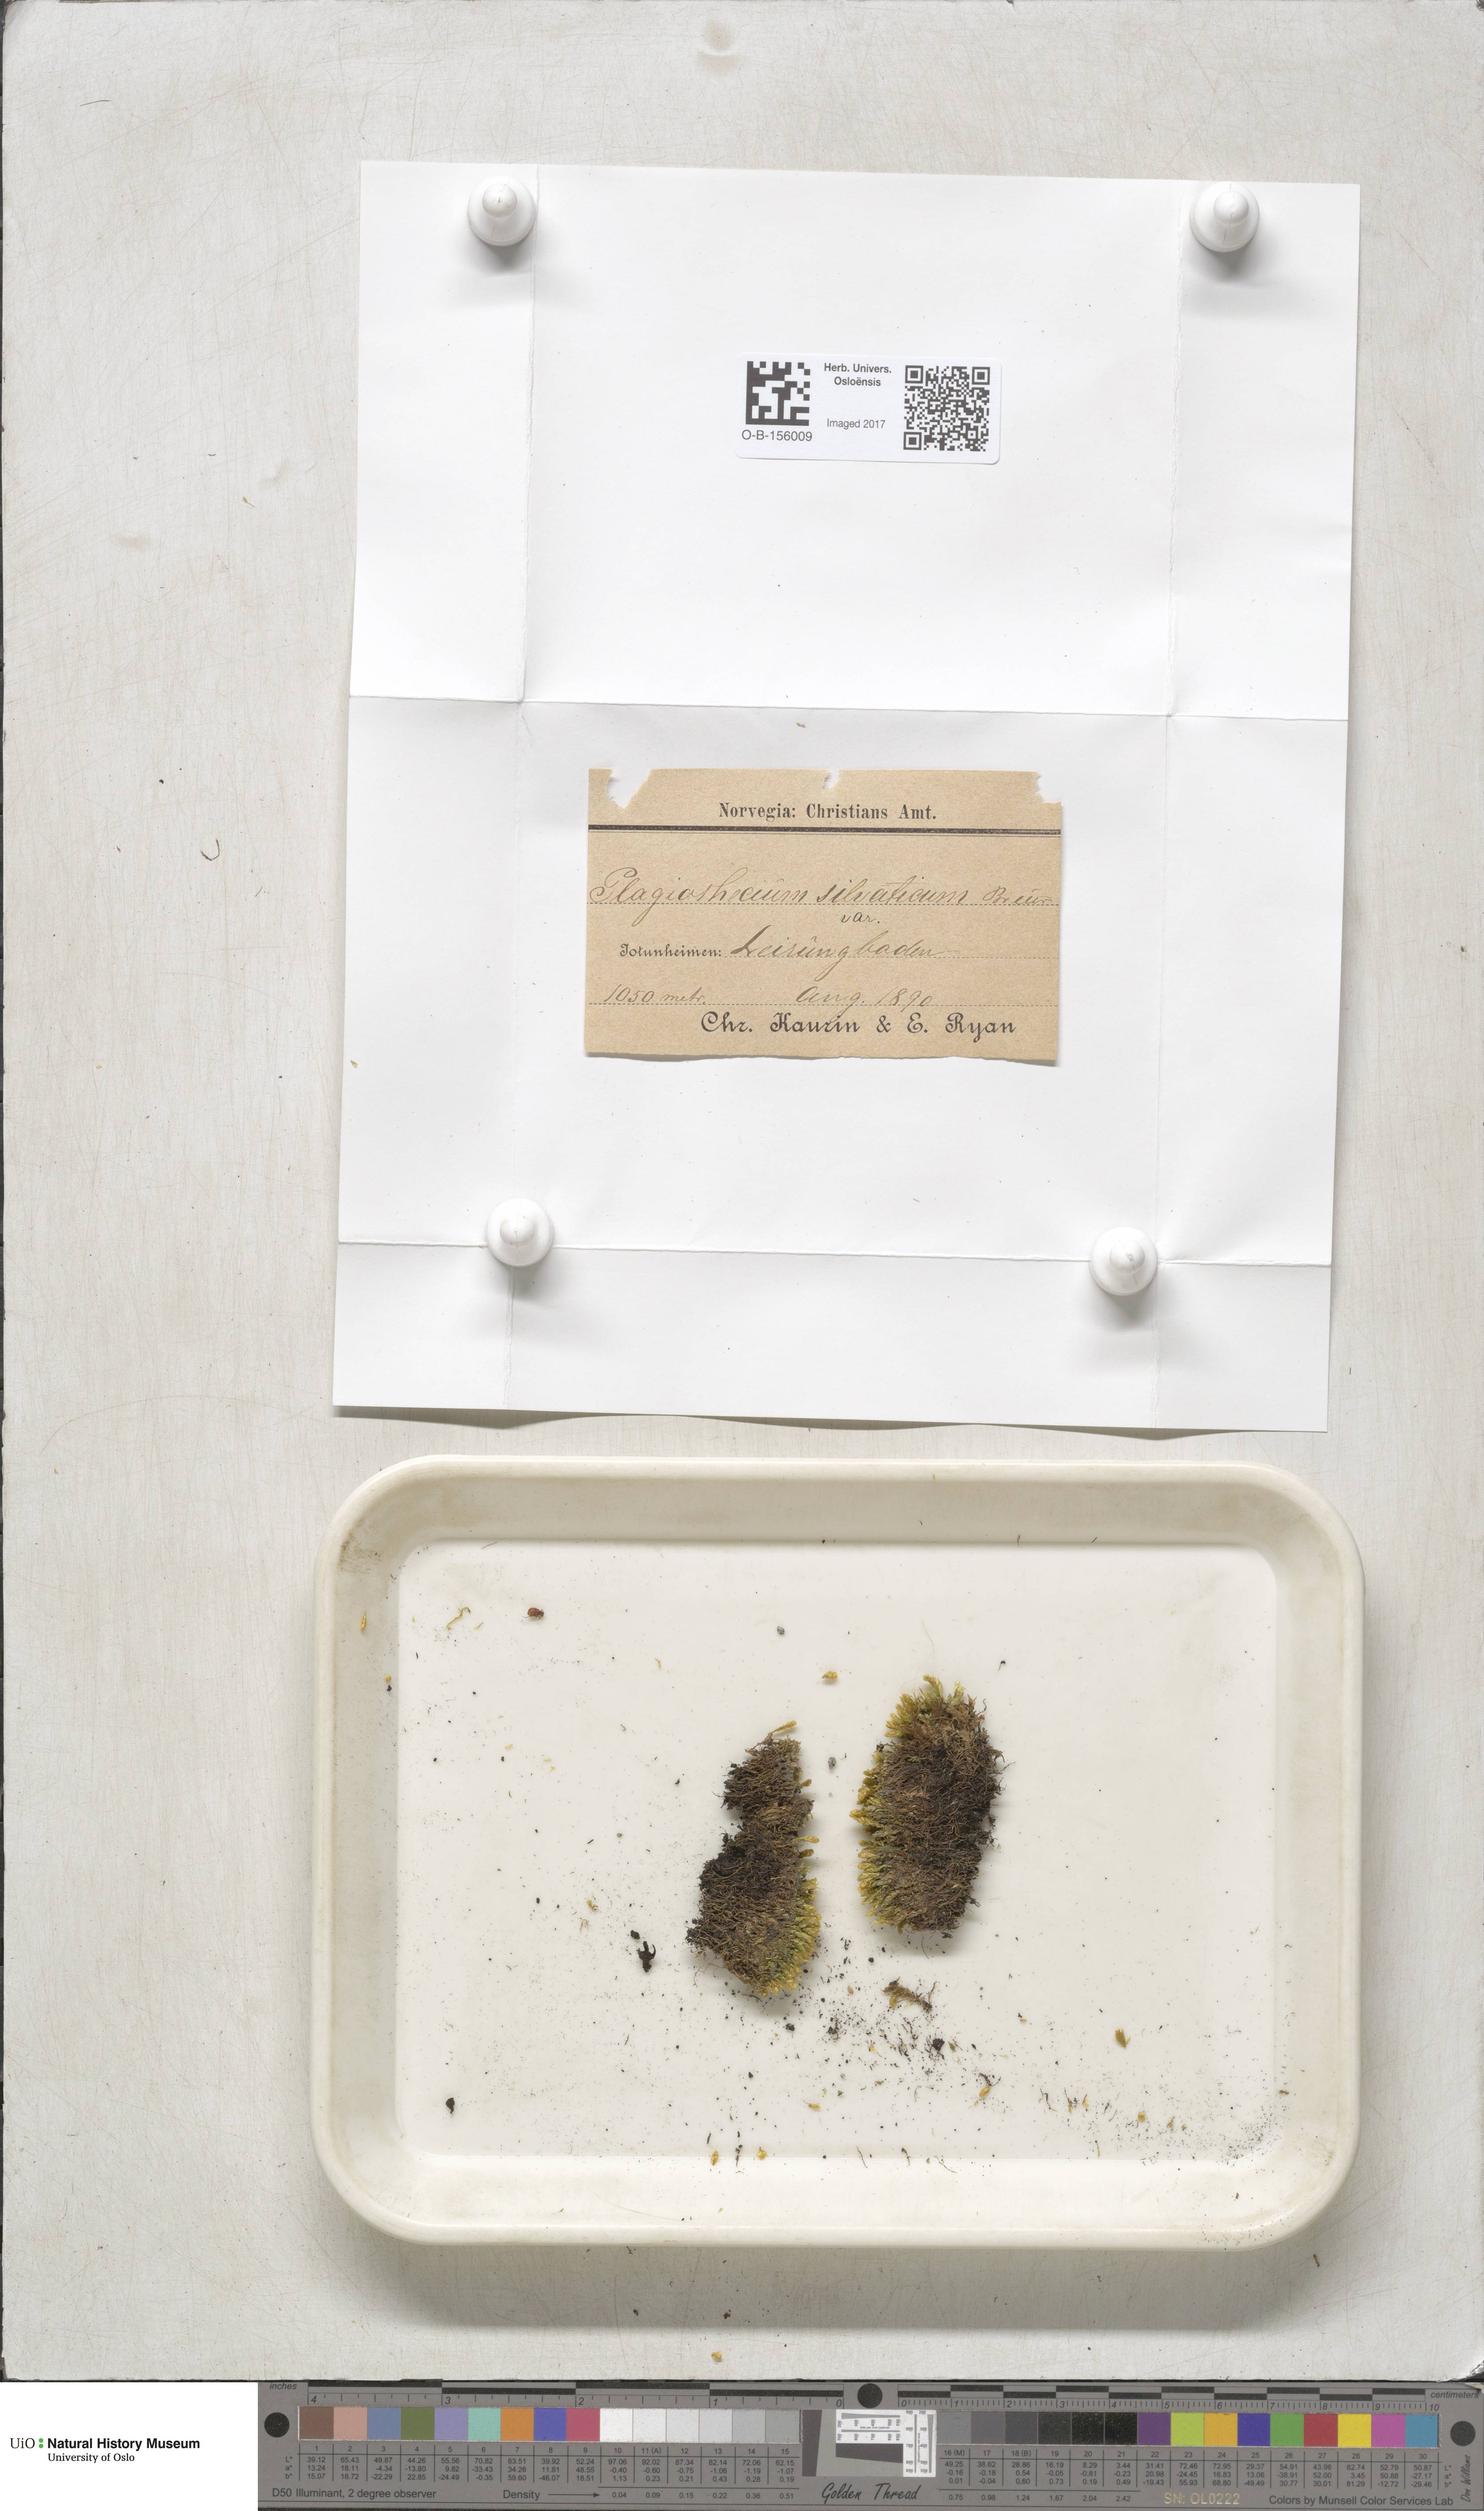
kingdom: Plantae
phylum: Bryophyta
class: Bryopsida
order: Hypnales
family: Plagiotheciaceae
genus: Plagiothecium
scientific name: Plagiothecium nemorale
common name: Woodsy silk-moss
